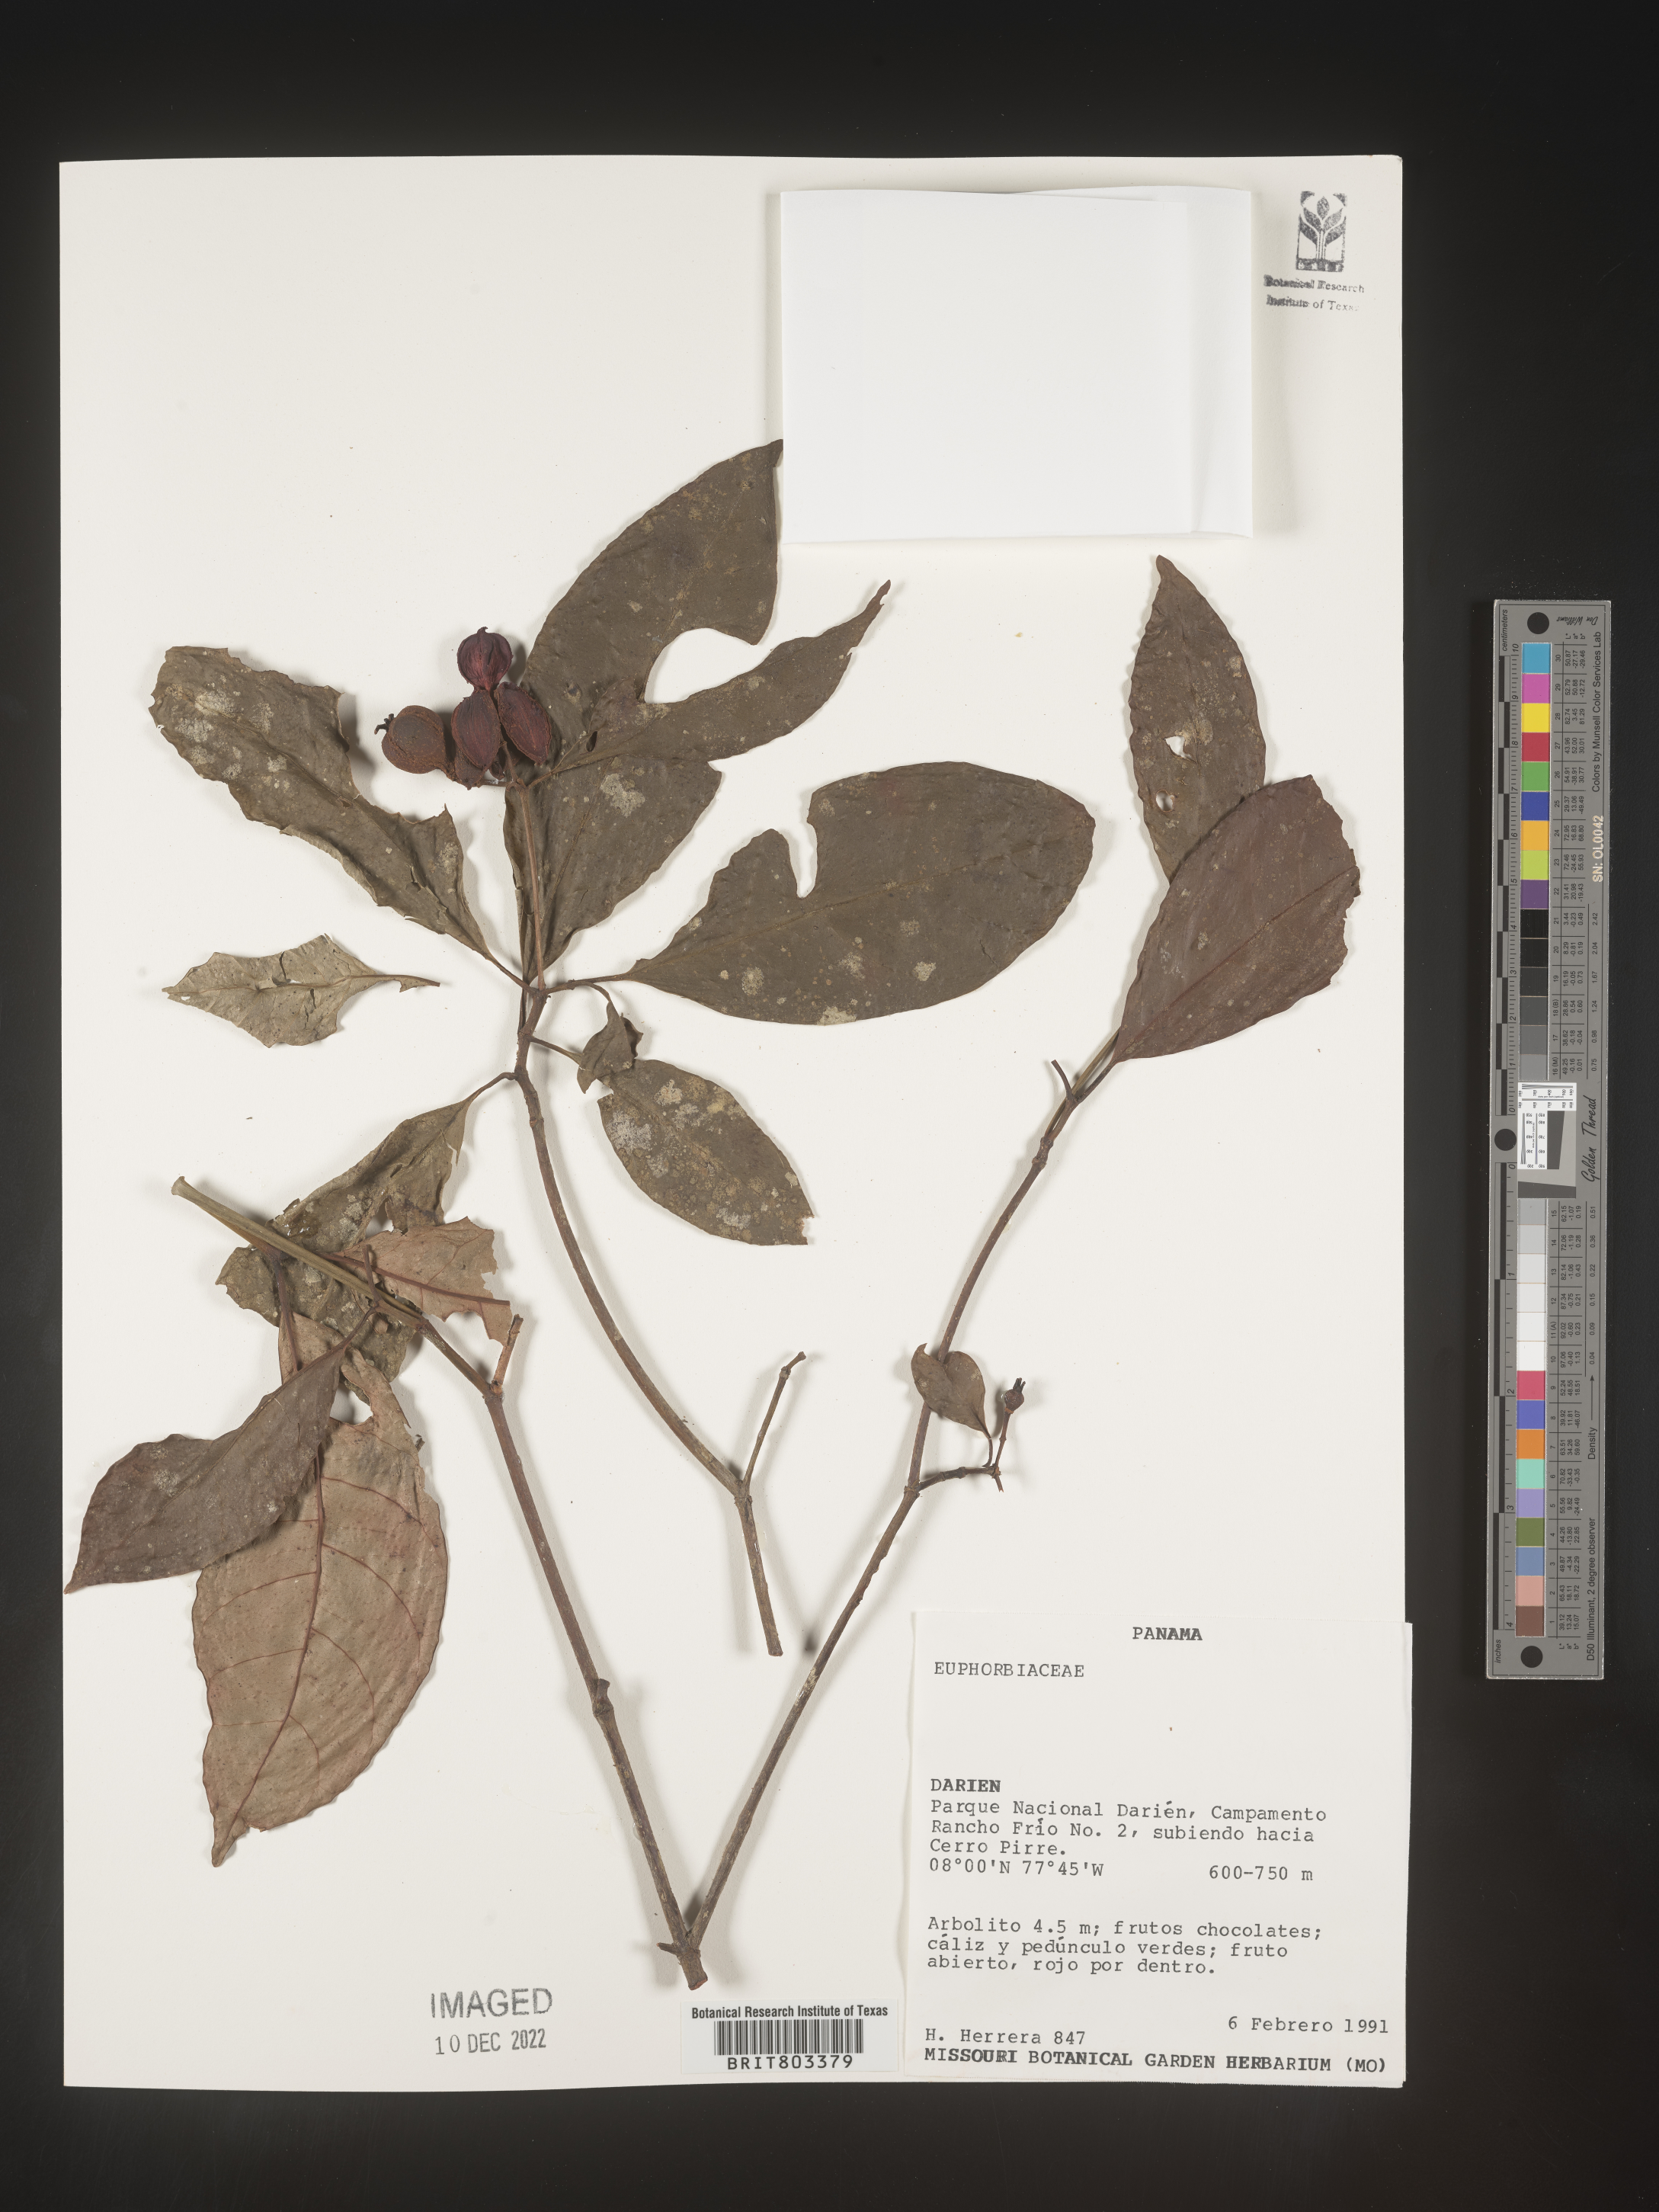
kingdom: Plantae
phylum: Tracheophyta
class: Magnoliopsida
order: Malpighiales
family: Clusiaceae
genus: Tovomita
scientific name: Tovomita
